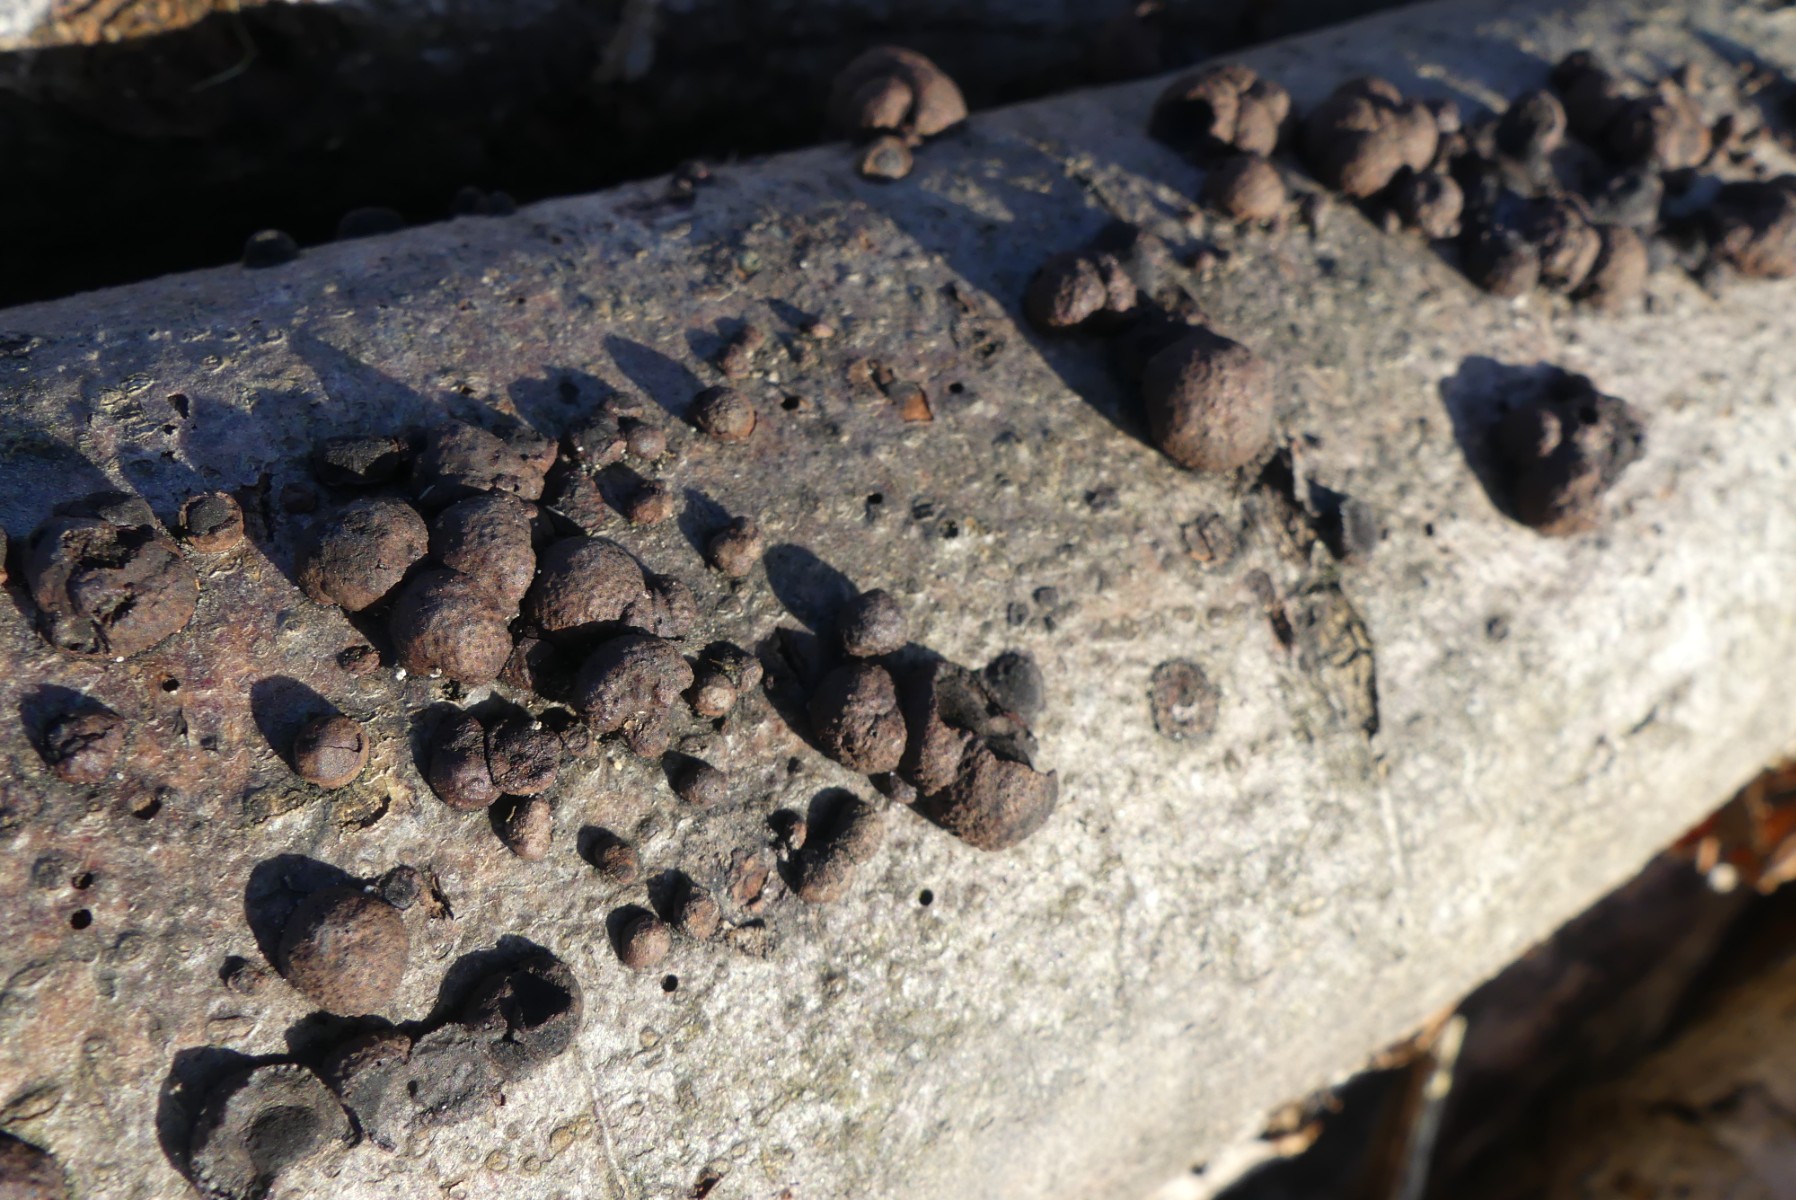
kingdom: Fungi
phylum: Ascomycota
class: Sordariomycetes
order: Xylariales
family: Hypoxylaceae
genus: Hypoxylon
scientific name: Hypoxylon fragiforme
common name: kuljordbær
